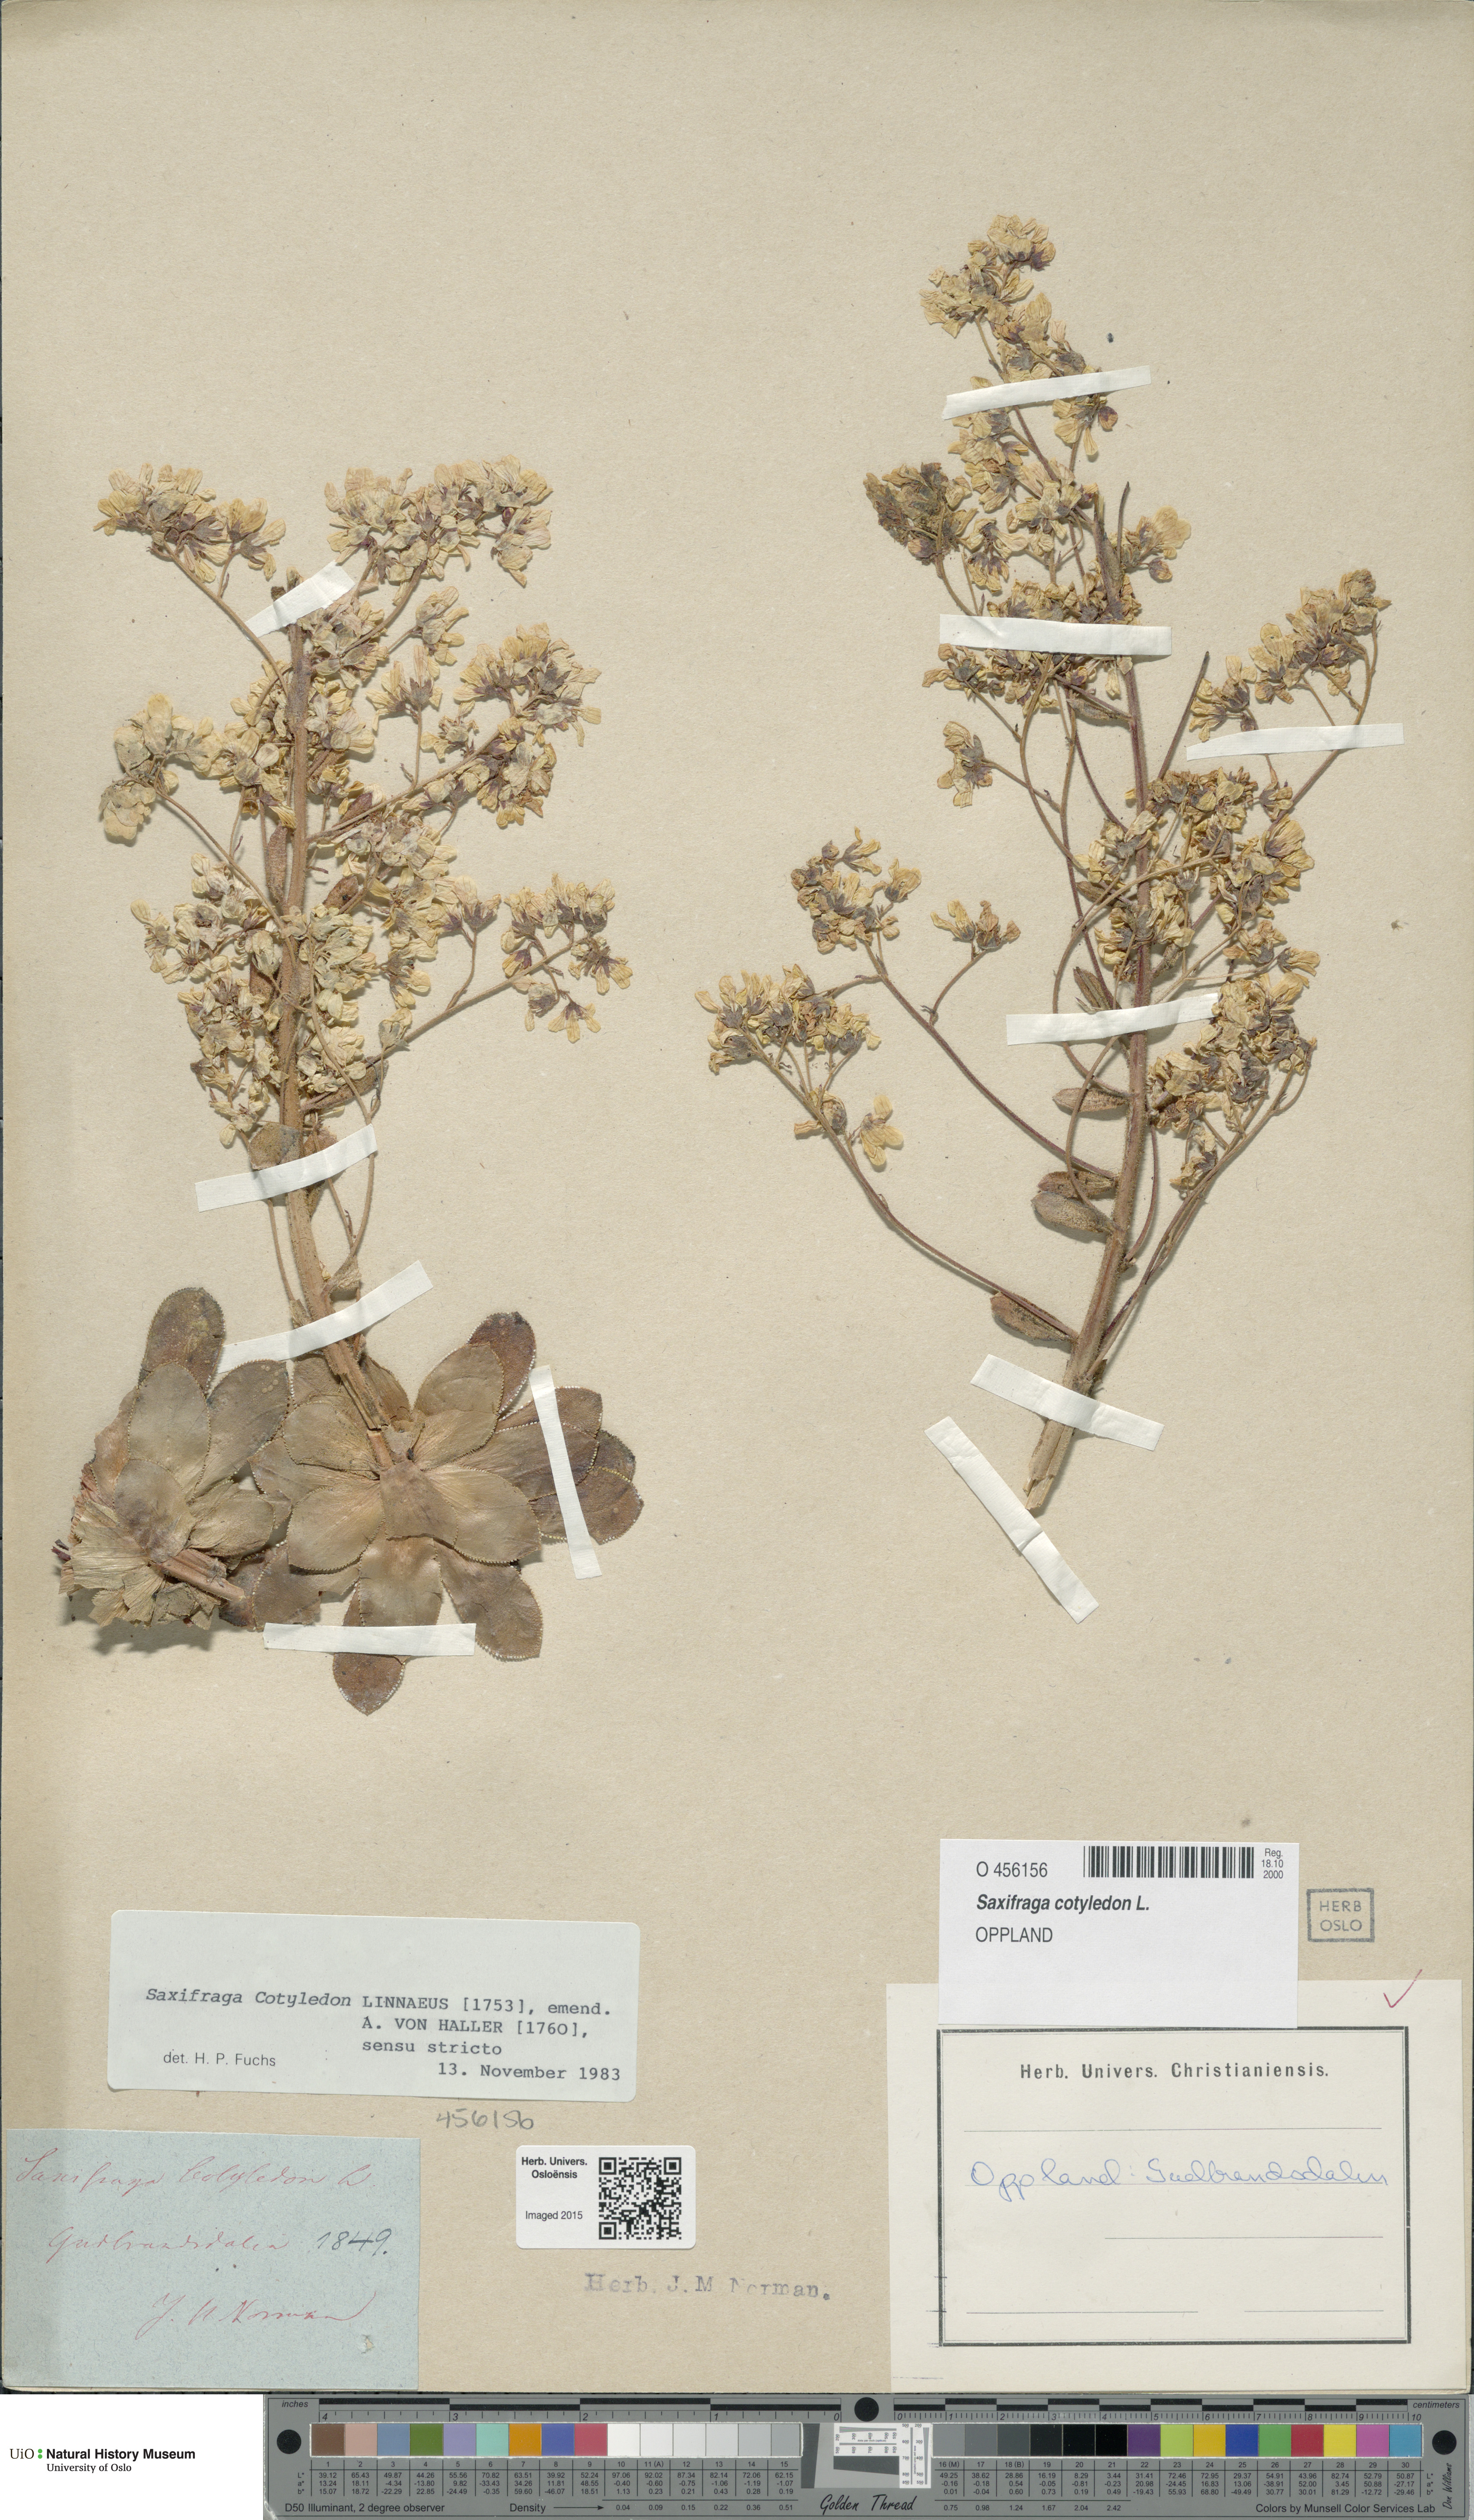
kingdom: Plantae
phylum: Tracheophyta
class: Magnoliopsida
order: Saxifragales
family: Saxifragaceae
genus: Saxifraga
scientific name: Saxifraga cotyledon
